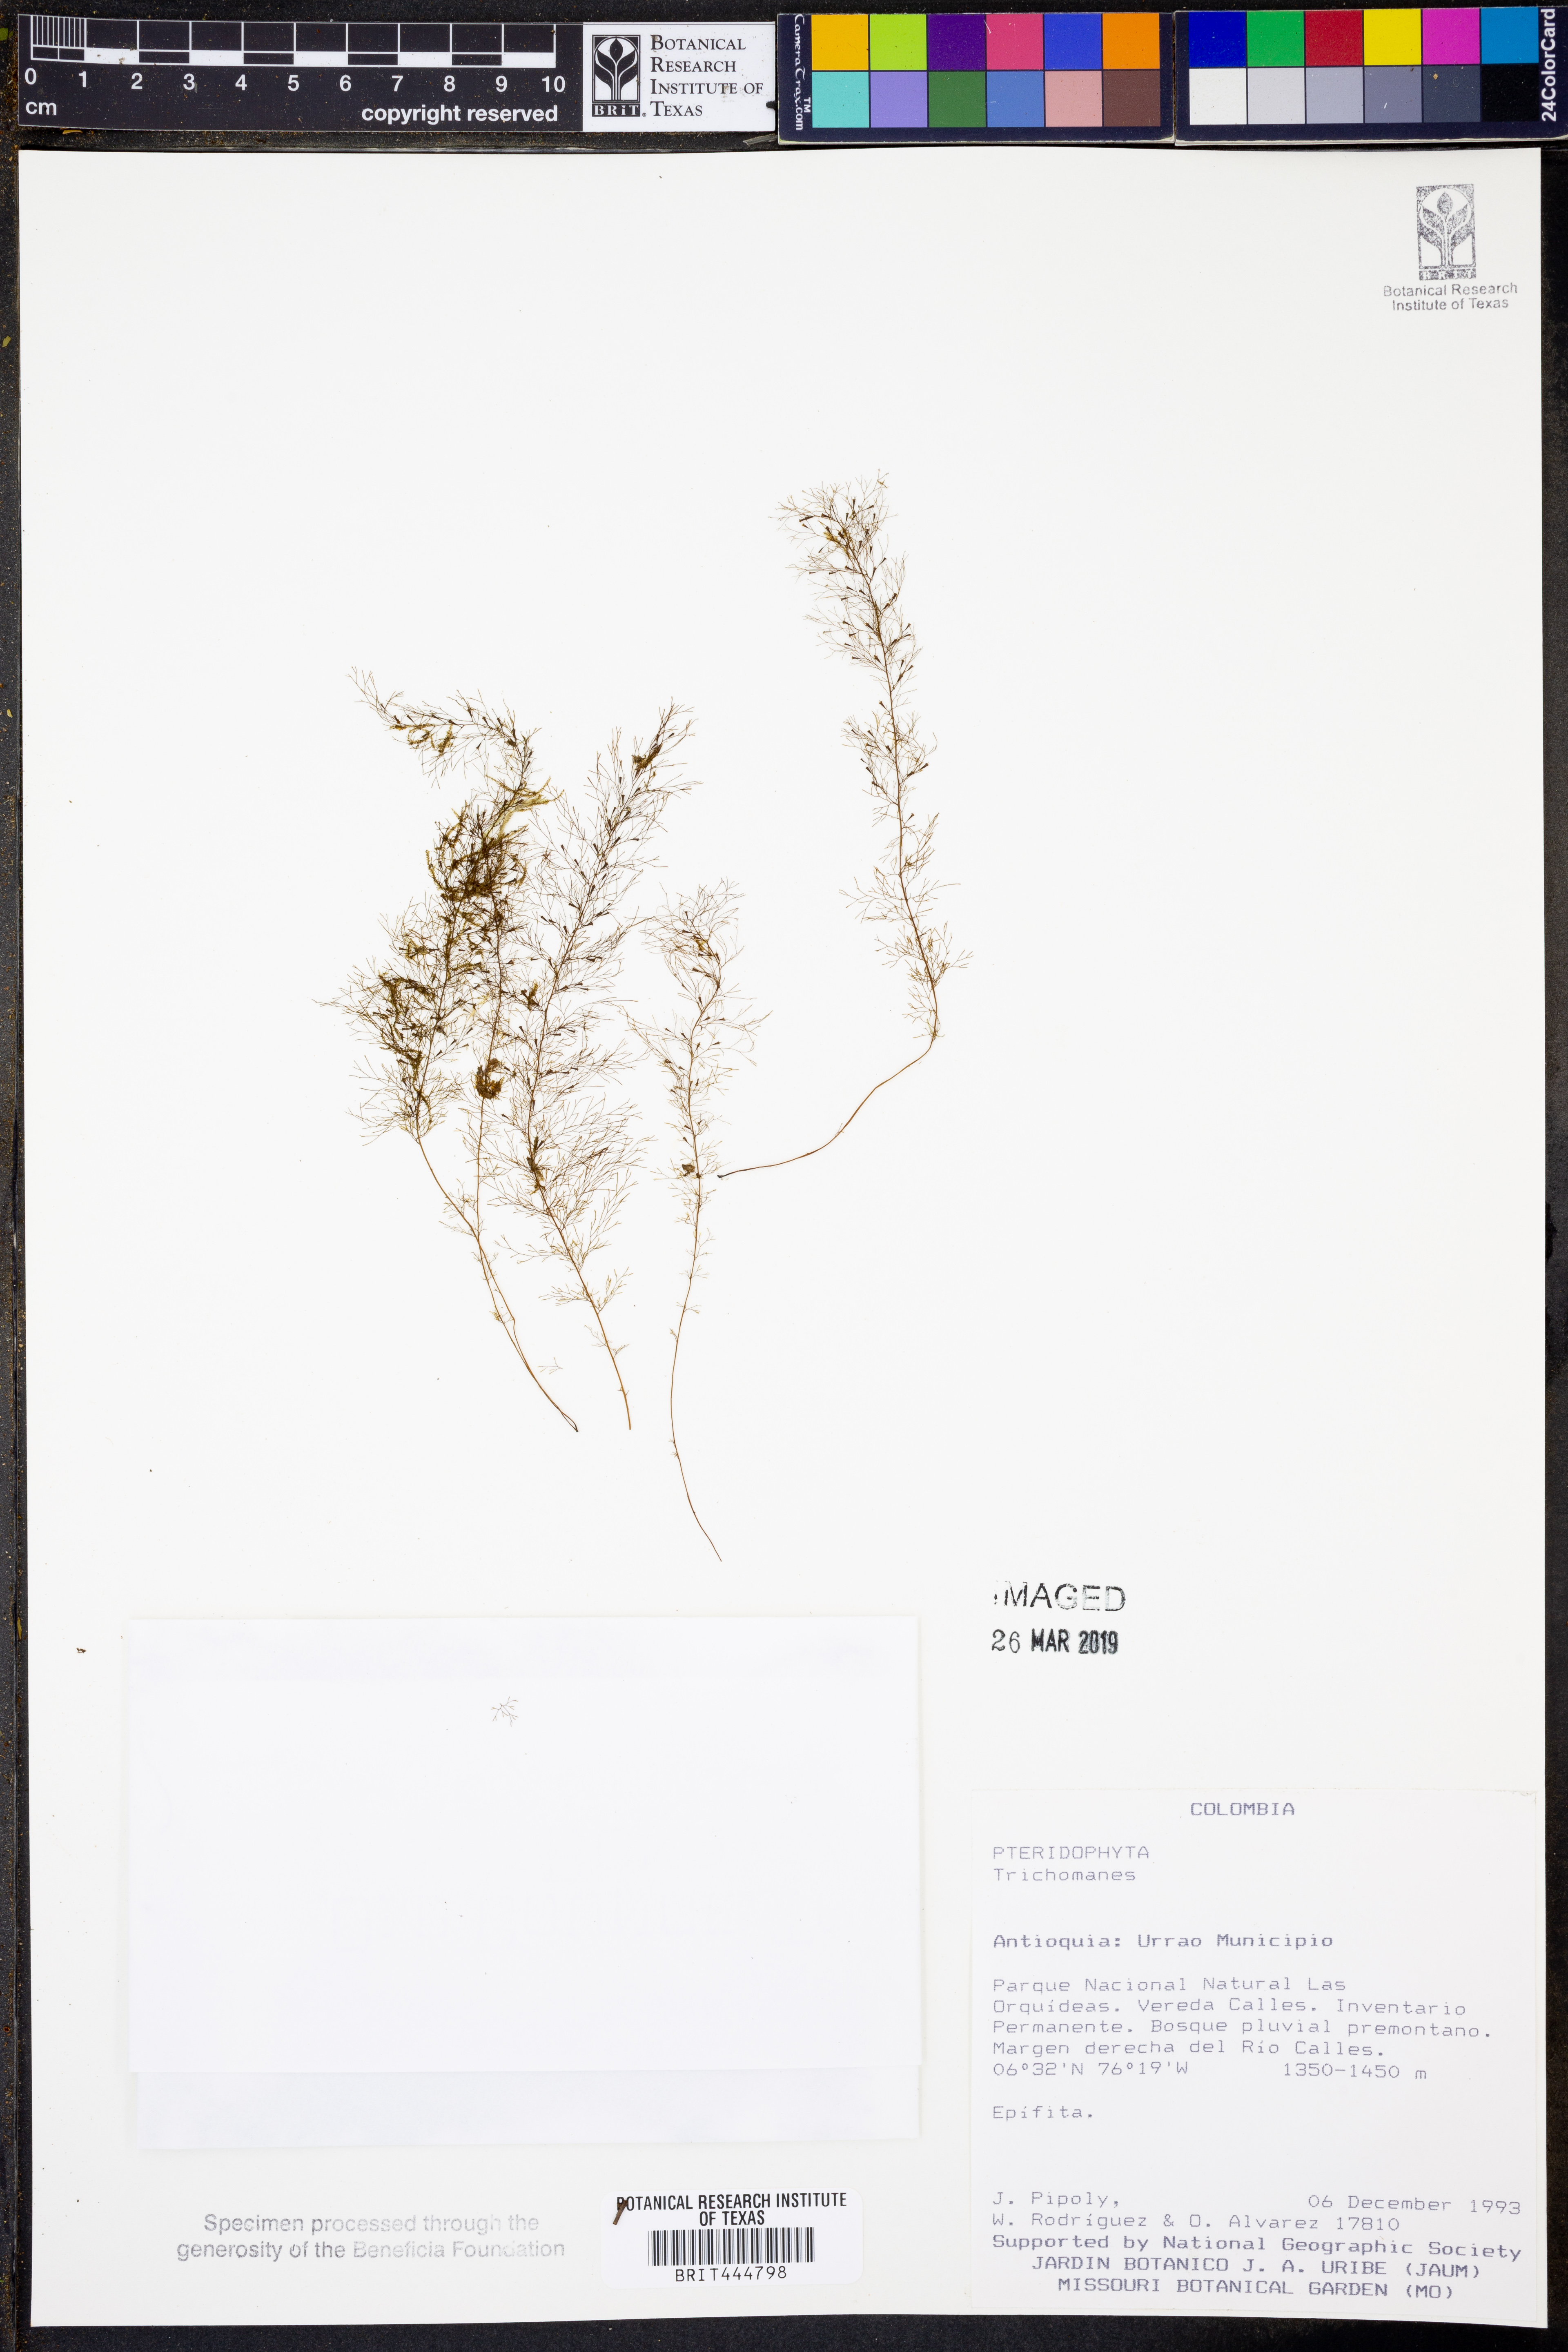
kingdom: Plantae
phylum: Tracheophyta
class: Polypodiopsida
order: Hymenophyllales
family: Hymenophyllaceae
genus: Trichomanes
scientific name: Trichomanes
